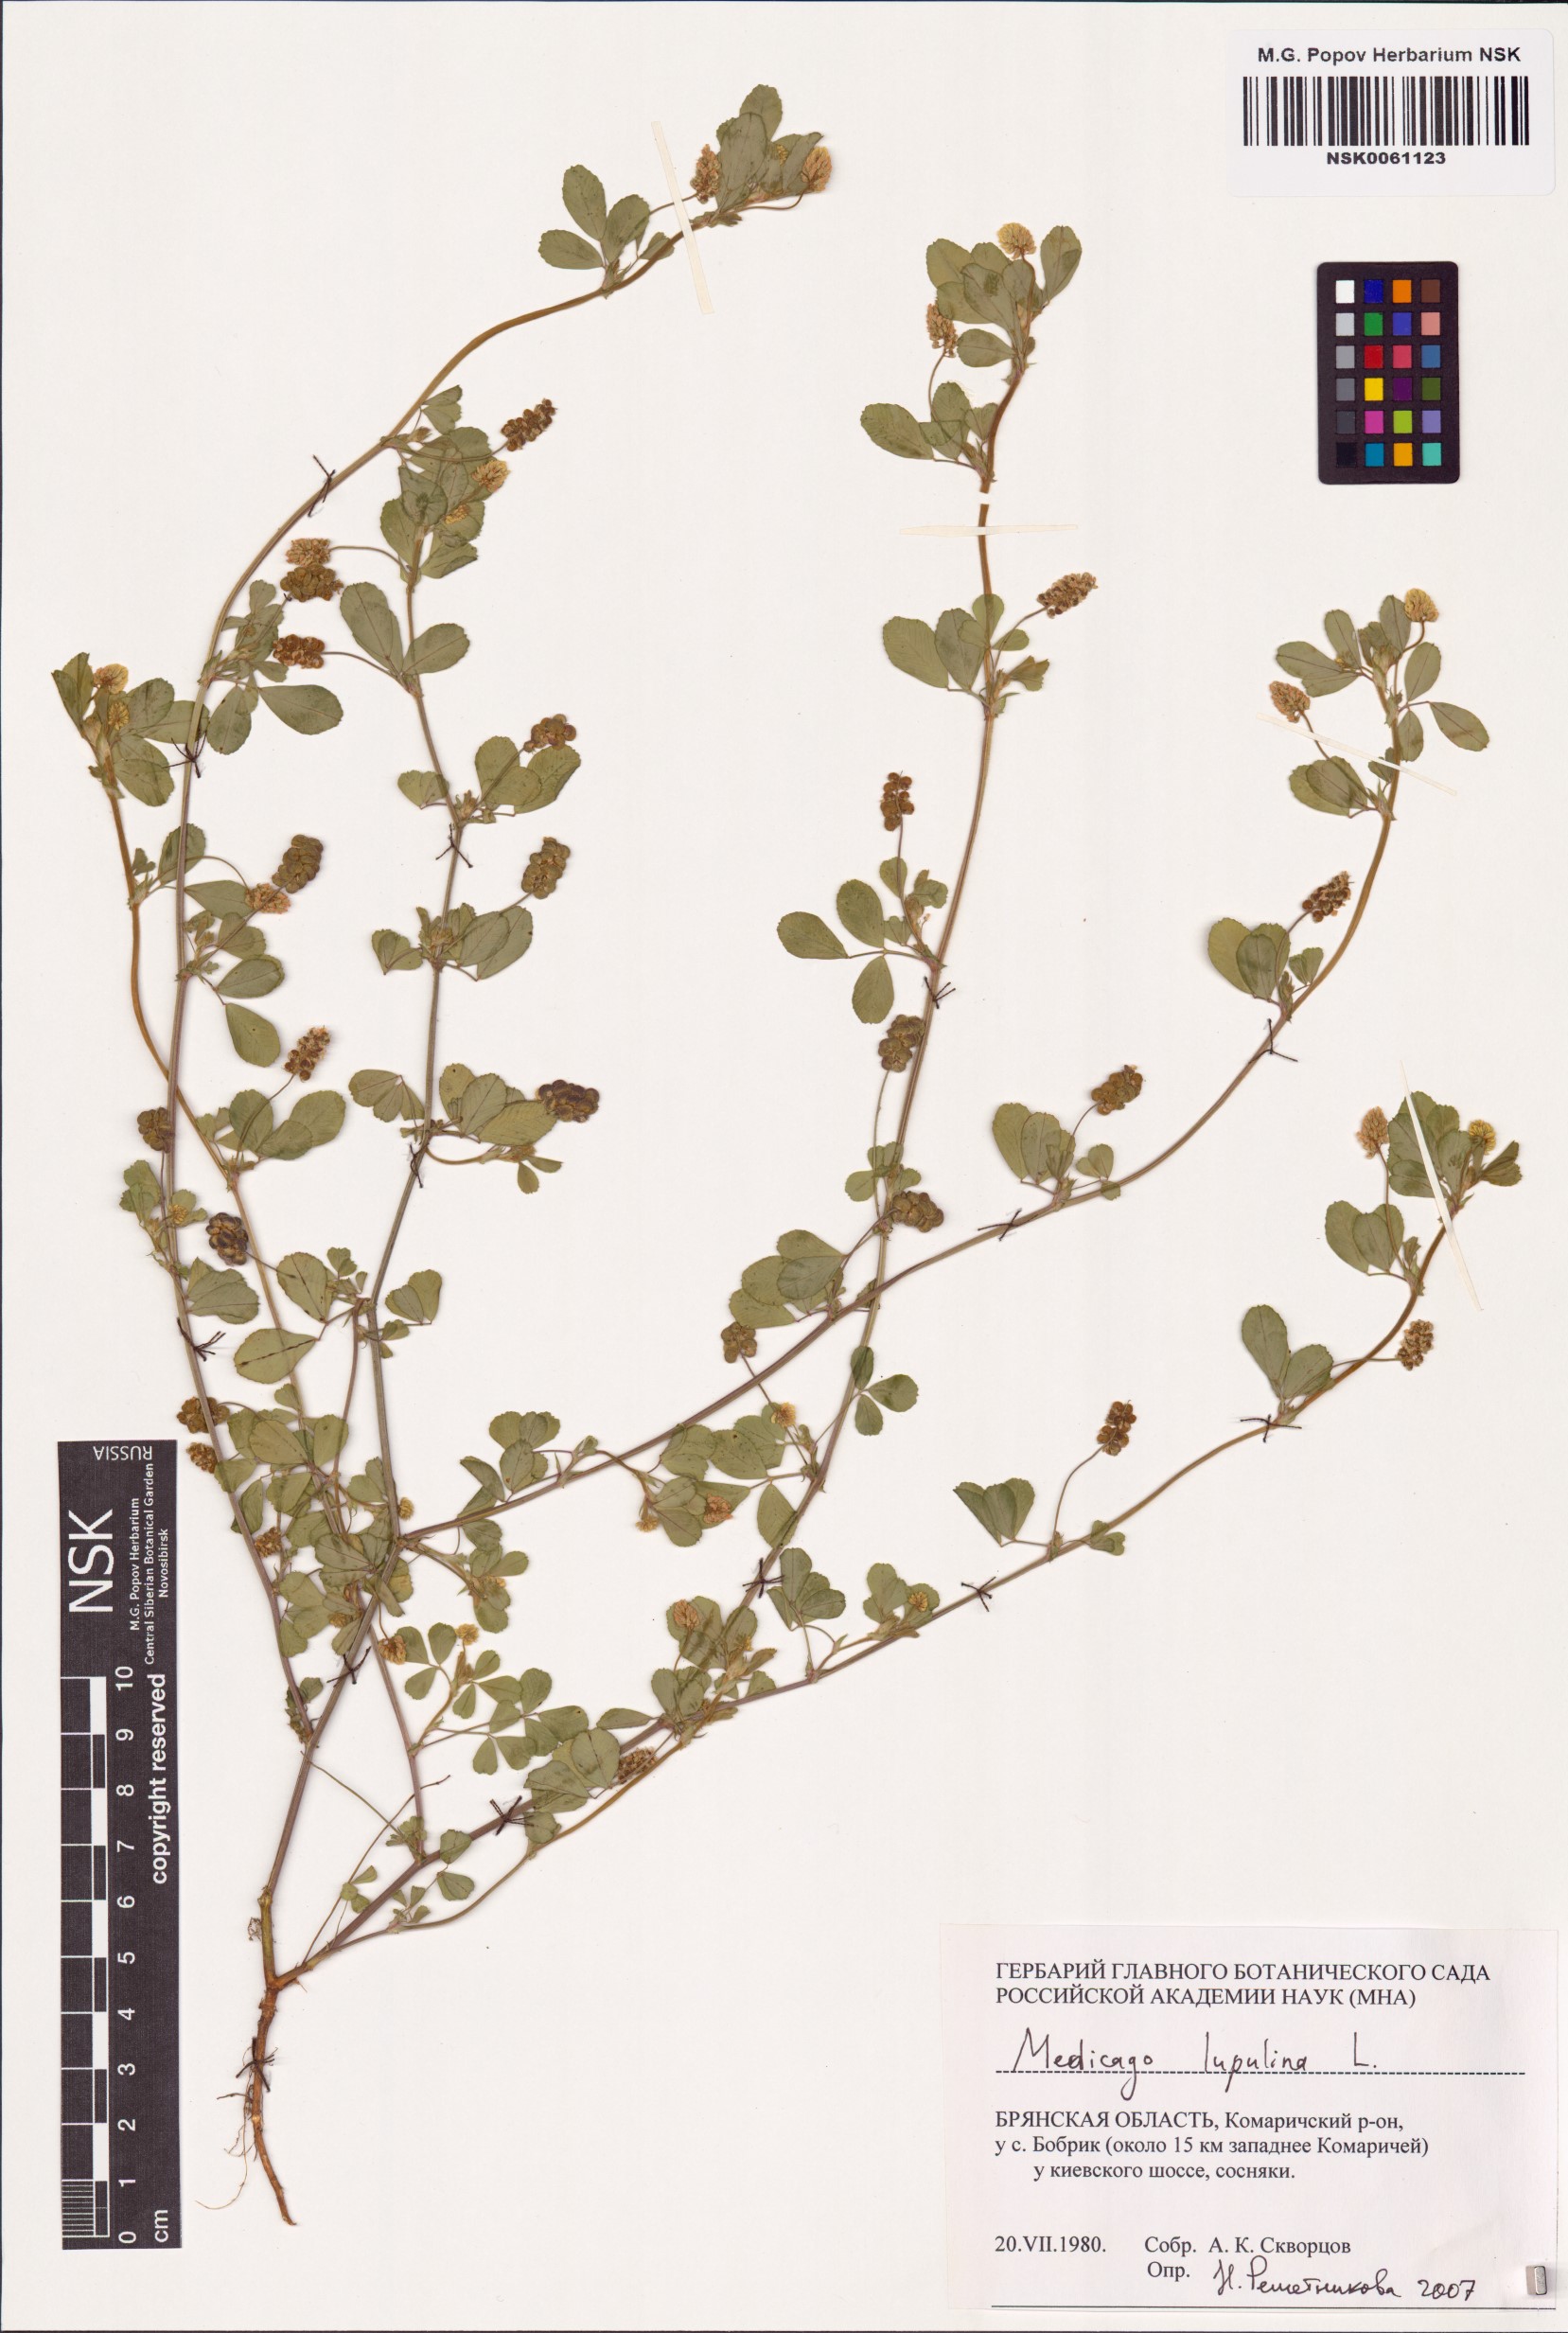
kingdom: Plantae
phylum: Tracheophyta
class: Magnoliopsida
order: Fabales
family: Fabaceae
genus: Medicago
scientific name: Medicago lupulina
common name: Black medick
